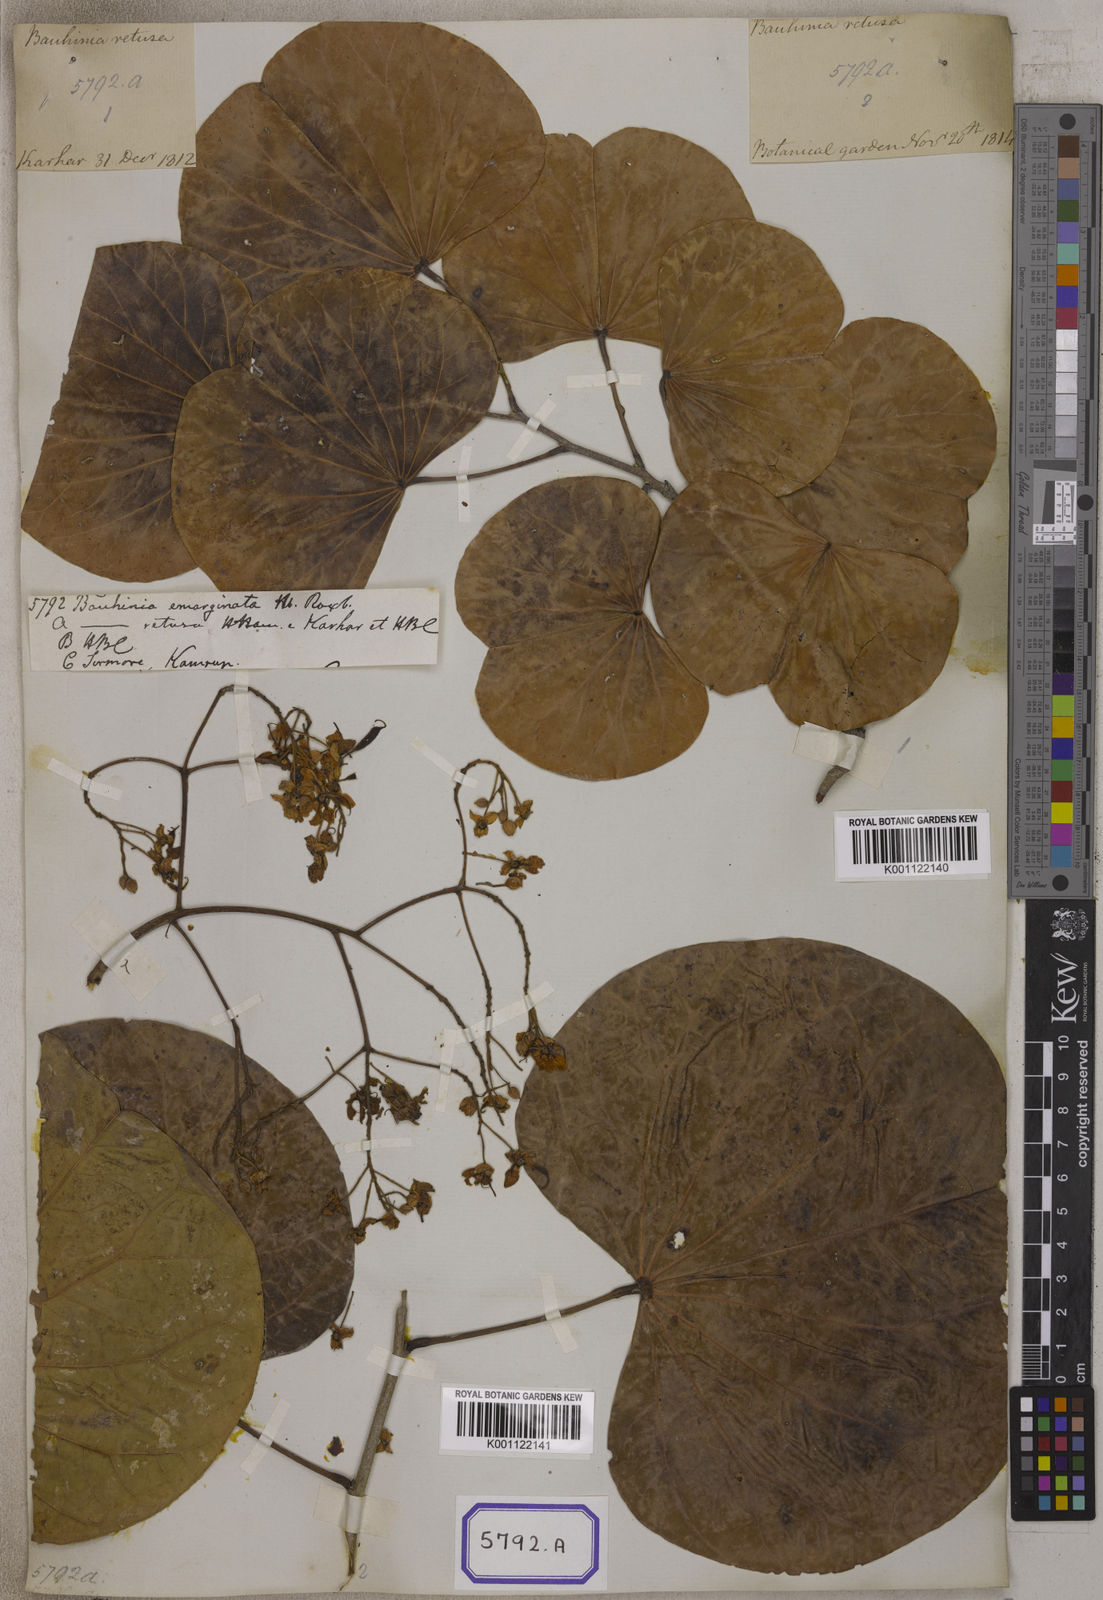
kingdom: Plantae
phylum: Tracheophyta
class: Magnoliopsida
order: Fabales
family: Fabaceae
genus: Bauhinia
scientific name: Bauhinia
